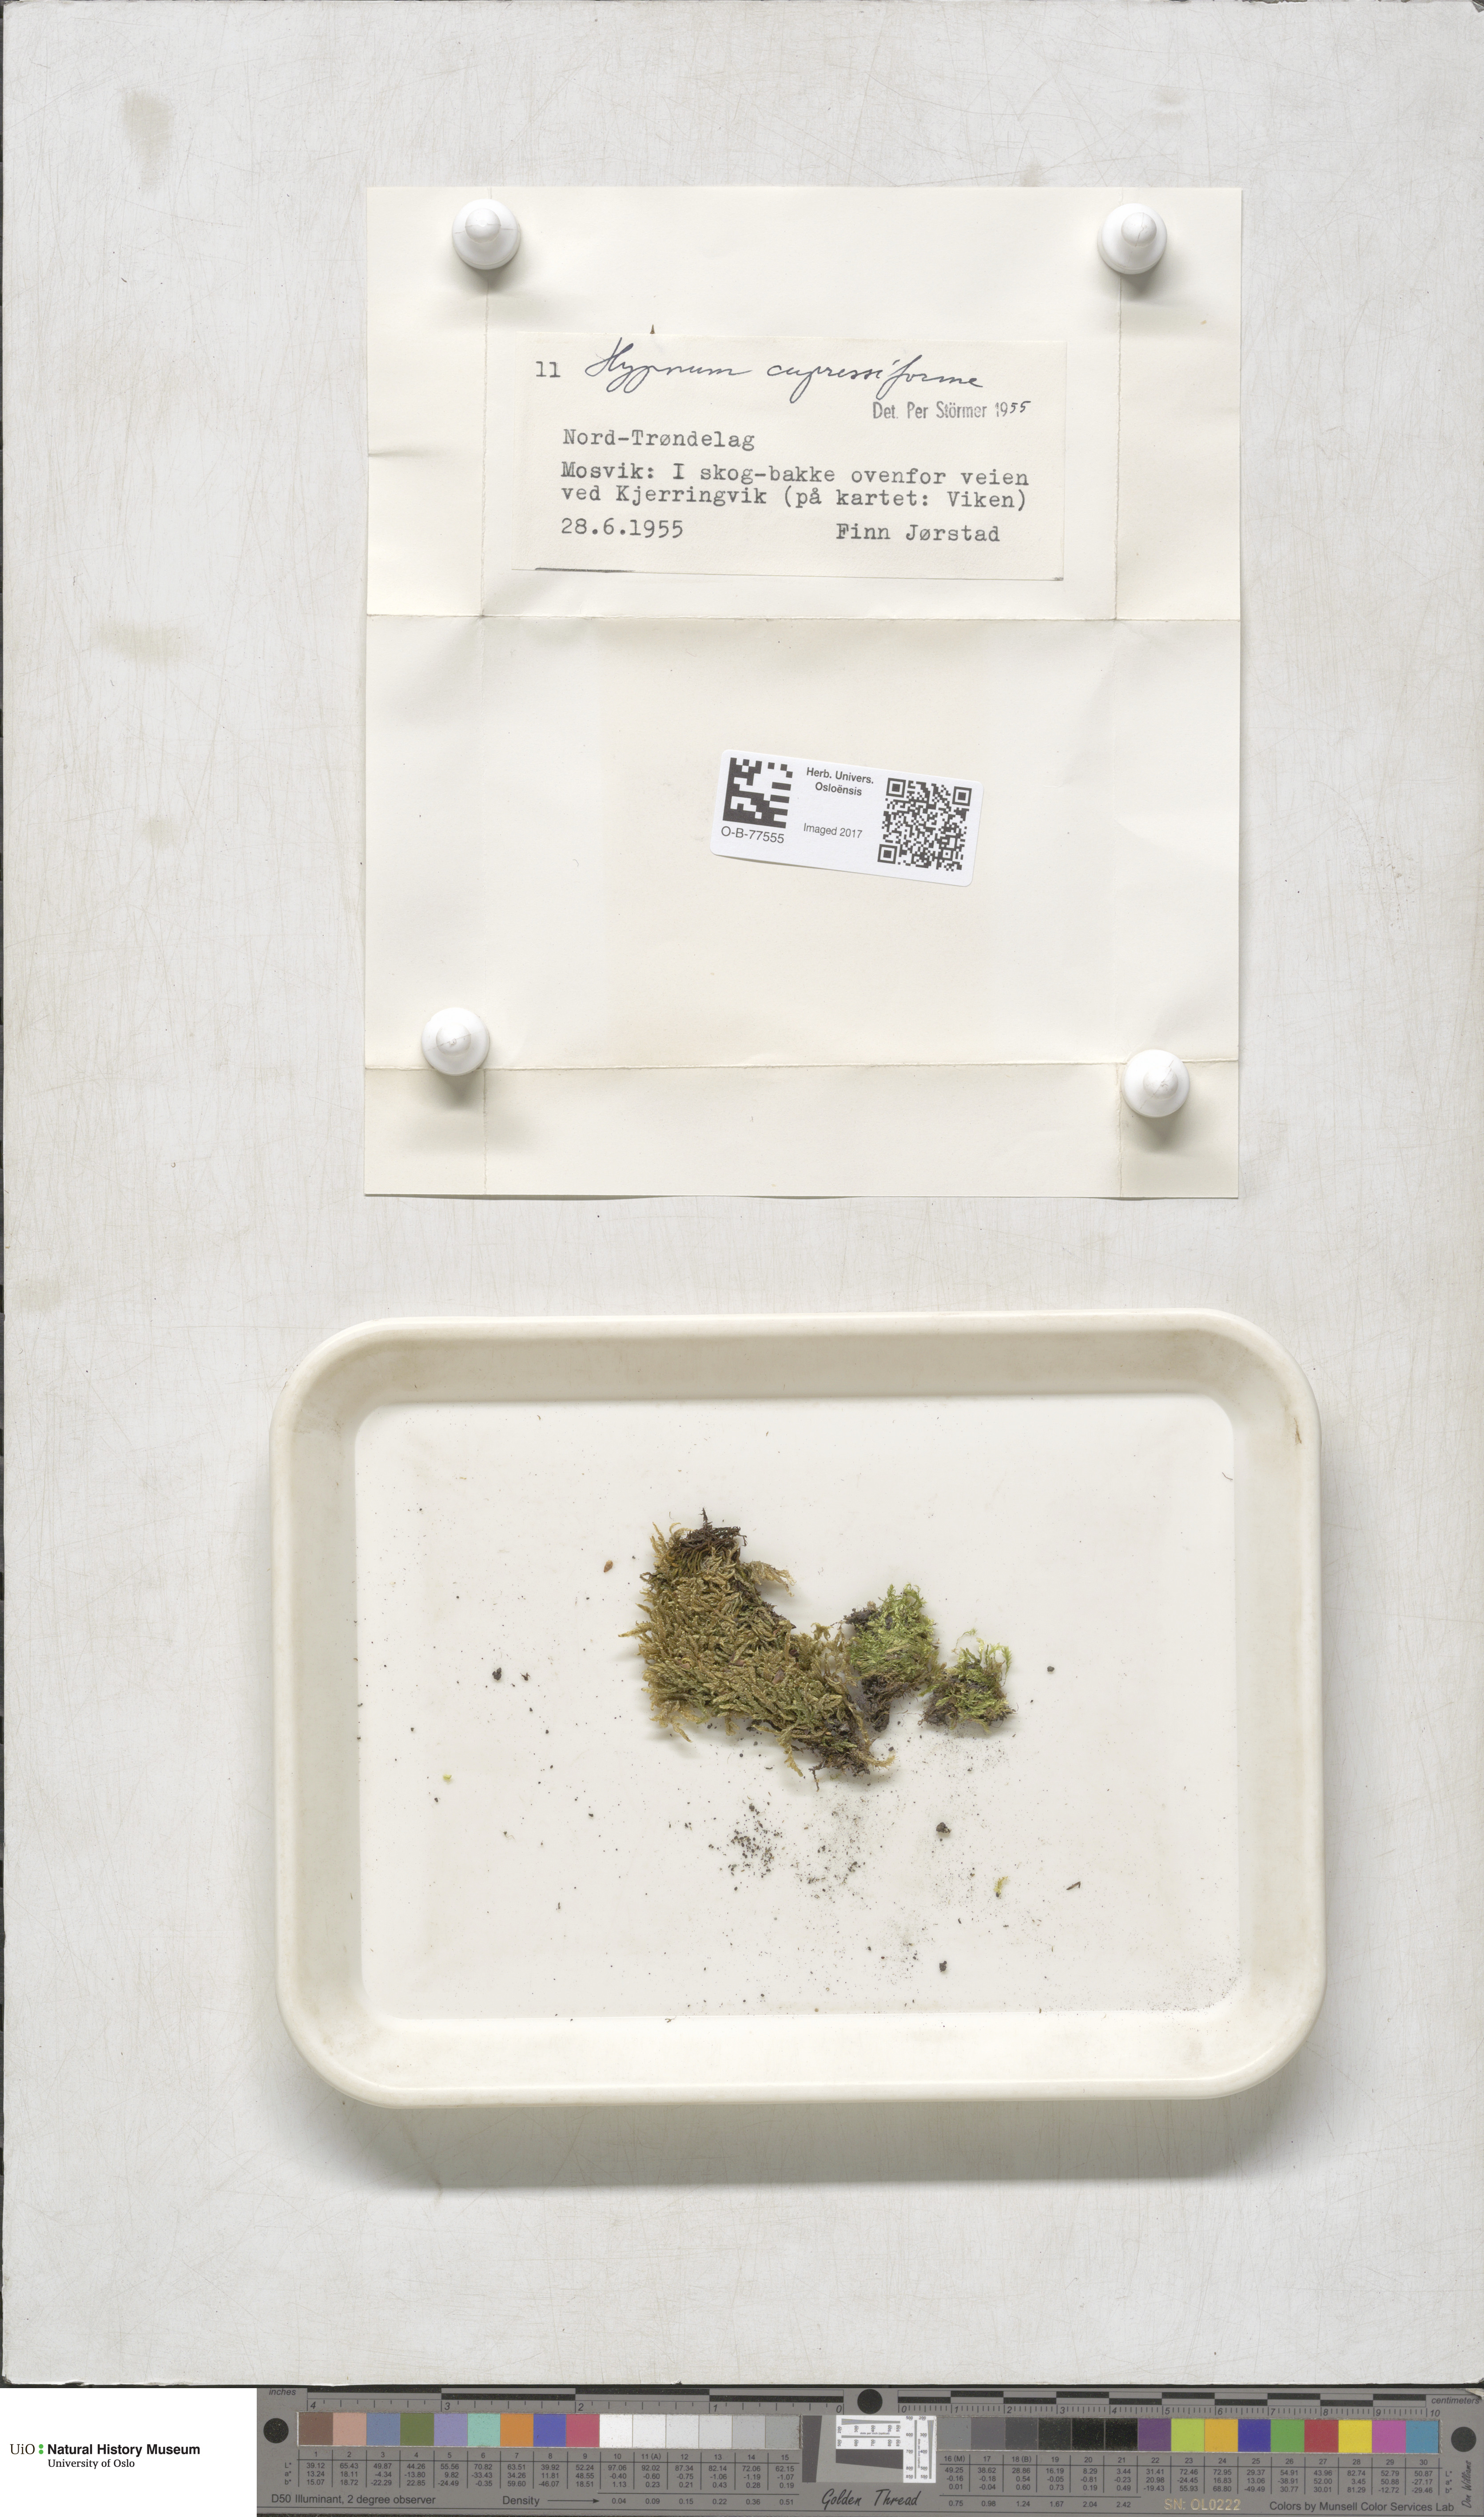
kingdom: Plantae
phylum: Bryophyta
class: Bryopsida
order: Hypnales
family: Hypnaceae
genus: Hypnum
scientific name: Hypnum cupressiforme
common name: Cypress-leaved plait-moss
